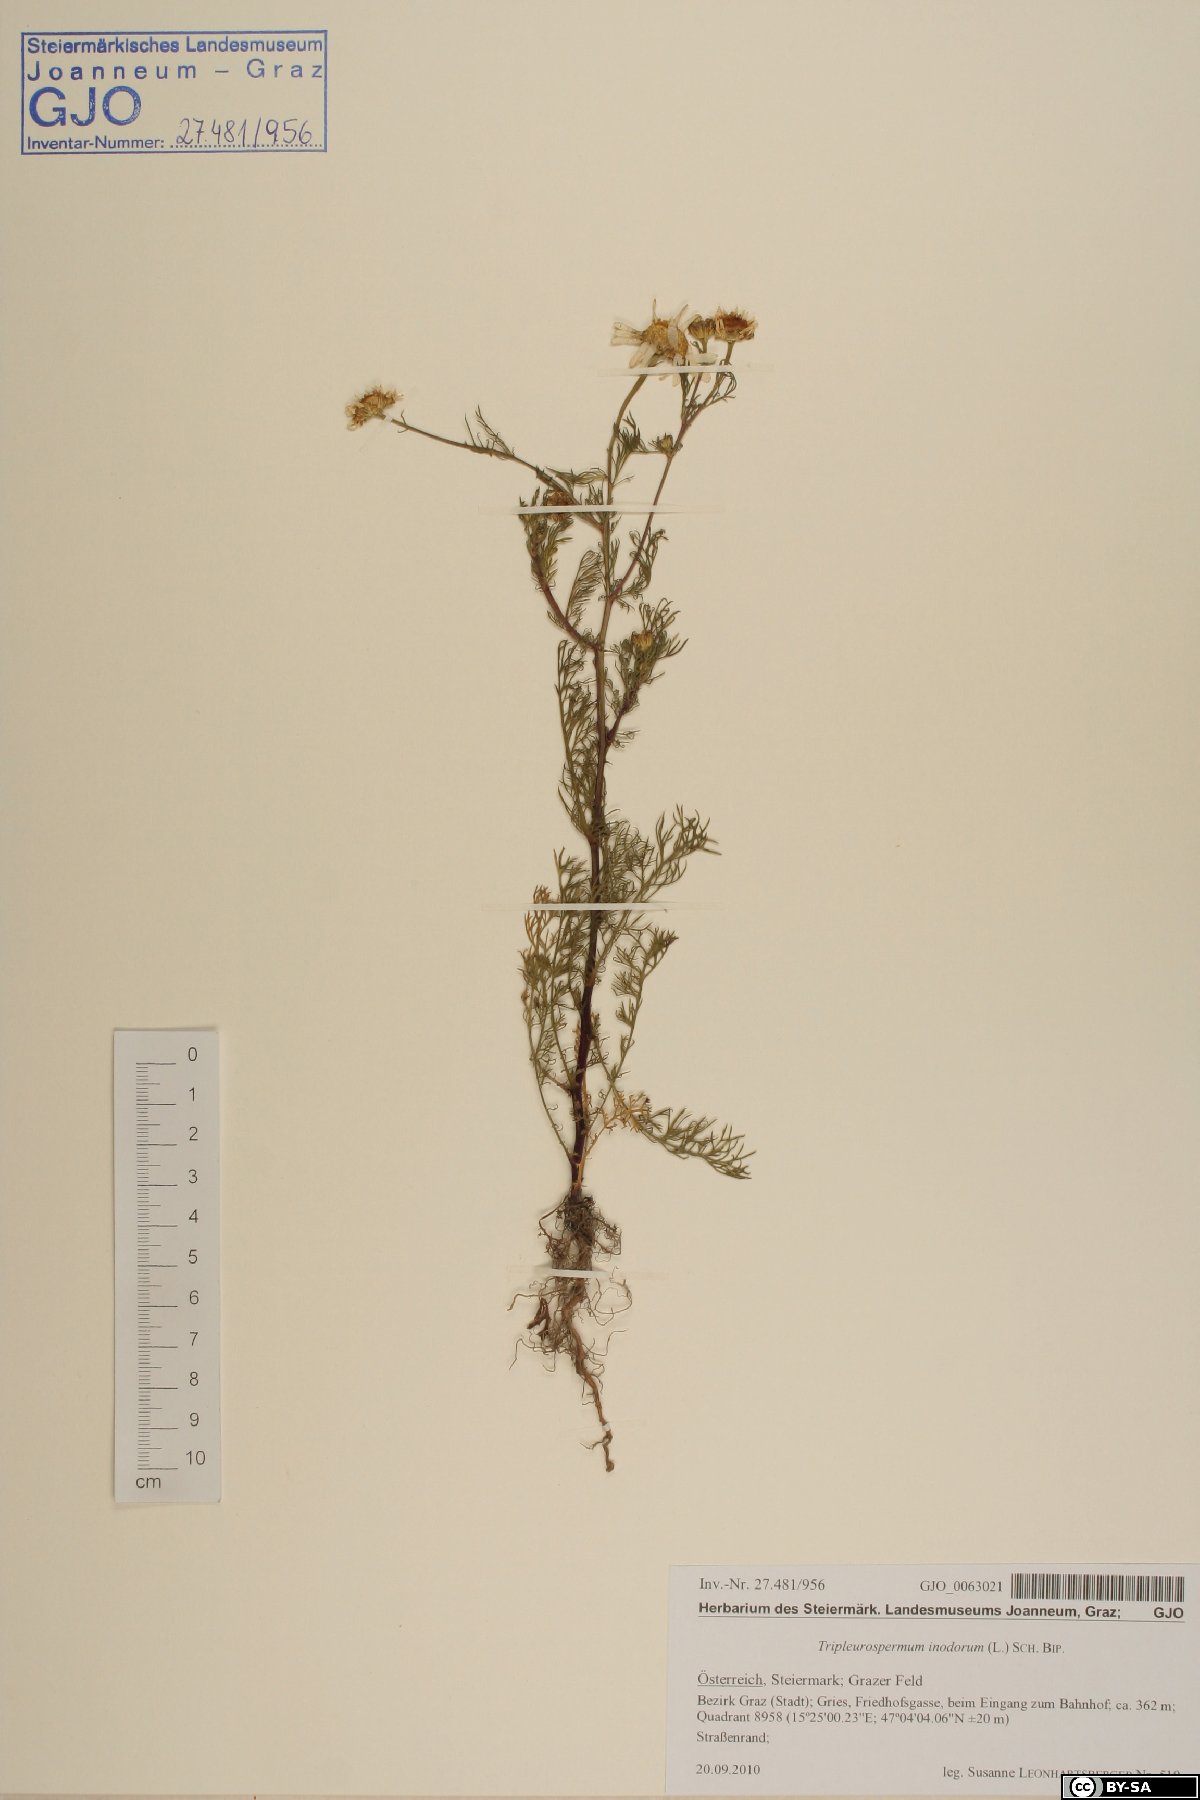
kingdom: Plantae
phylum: Tracheophyta
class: Magnoliopsida
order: Asterales
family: Asteraceae
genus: Tripleurospermum
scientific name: Tripleurospermum inodorum
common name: Scentless mayweed
